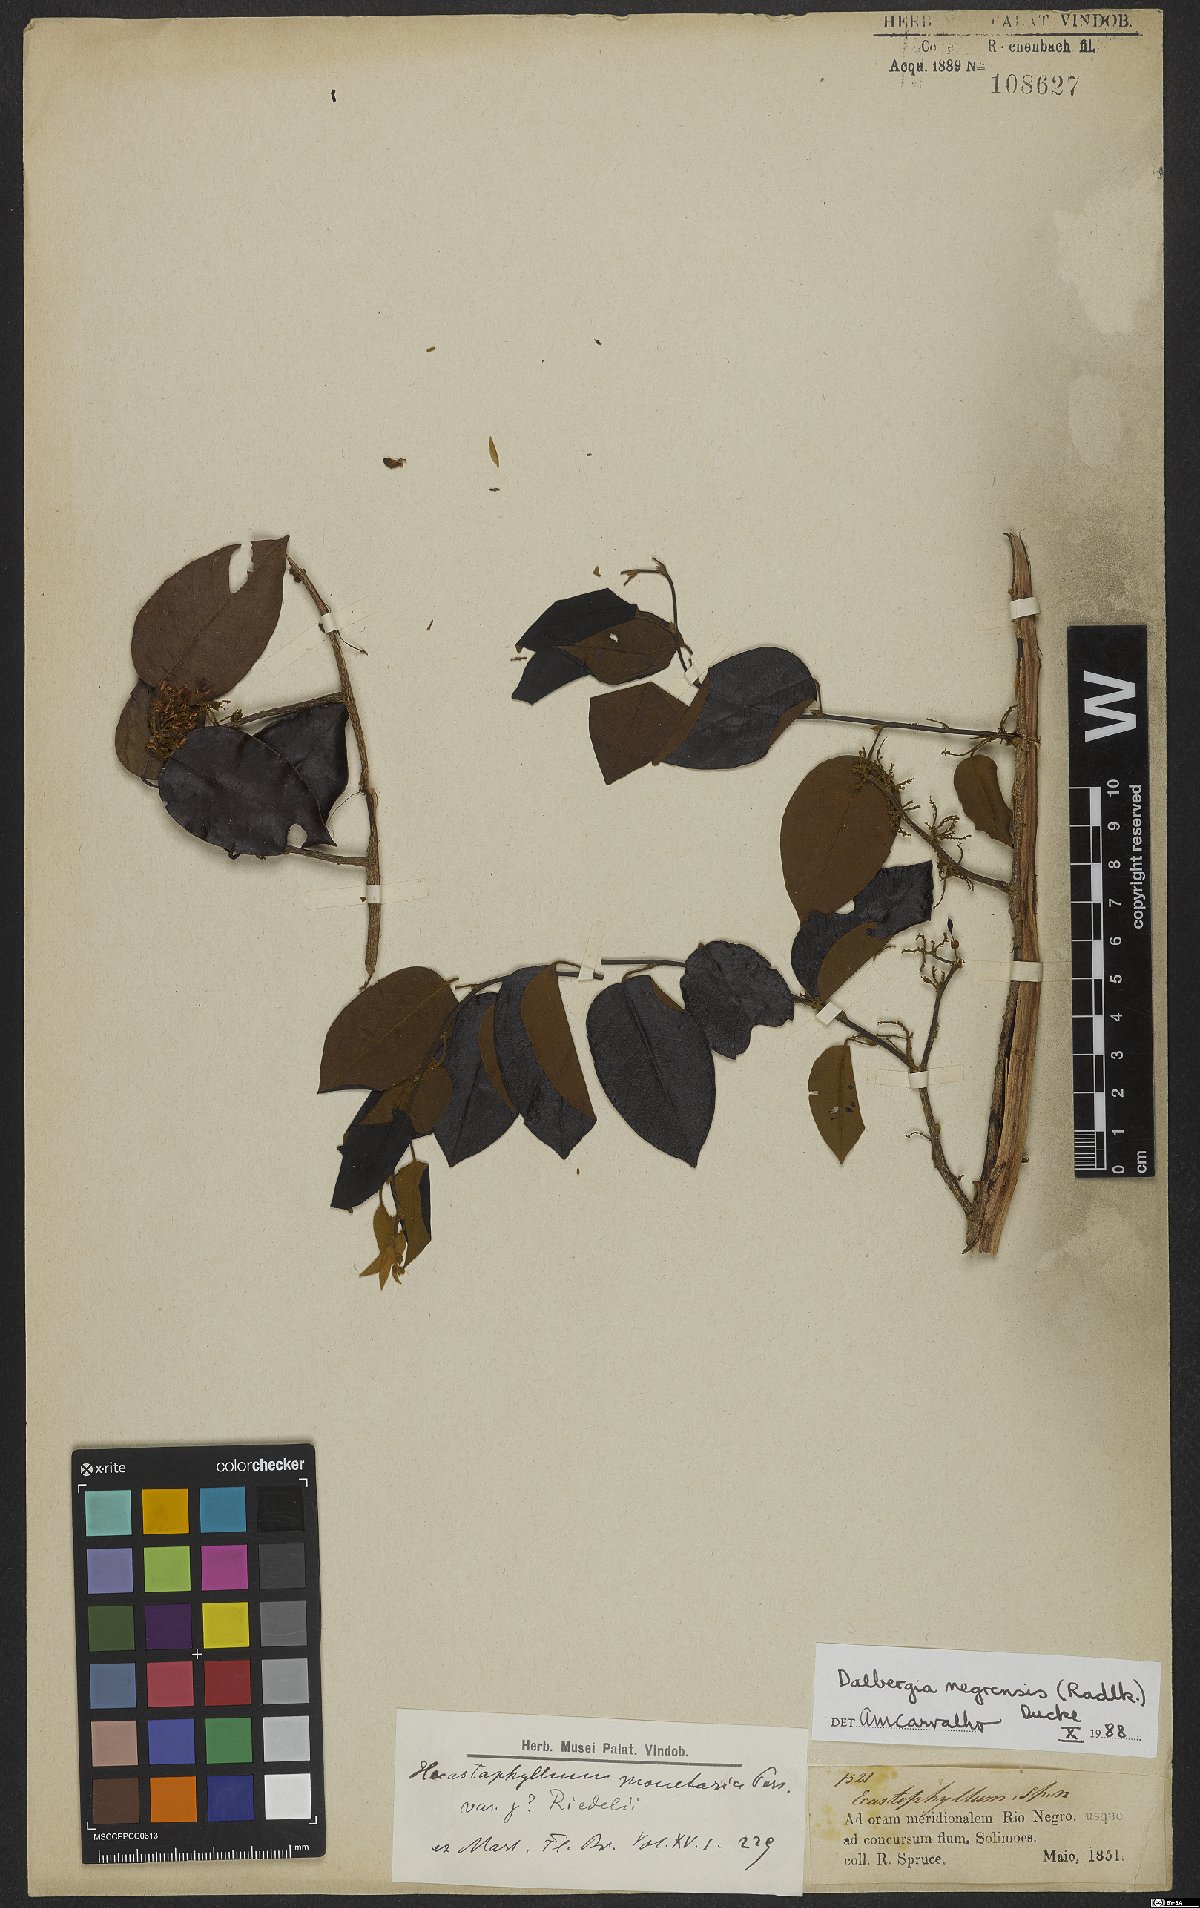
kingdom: Plantae
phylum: Tracheophyta
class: Magnoliopsida
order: Fabales
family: Fabaceae
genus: Dalbergia
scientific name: Dalbergia negrensis
